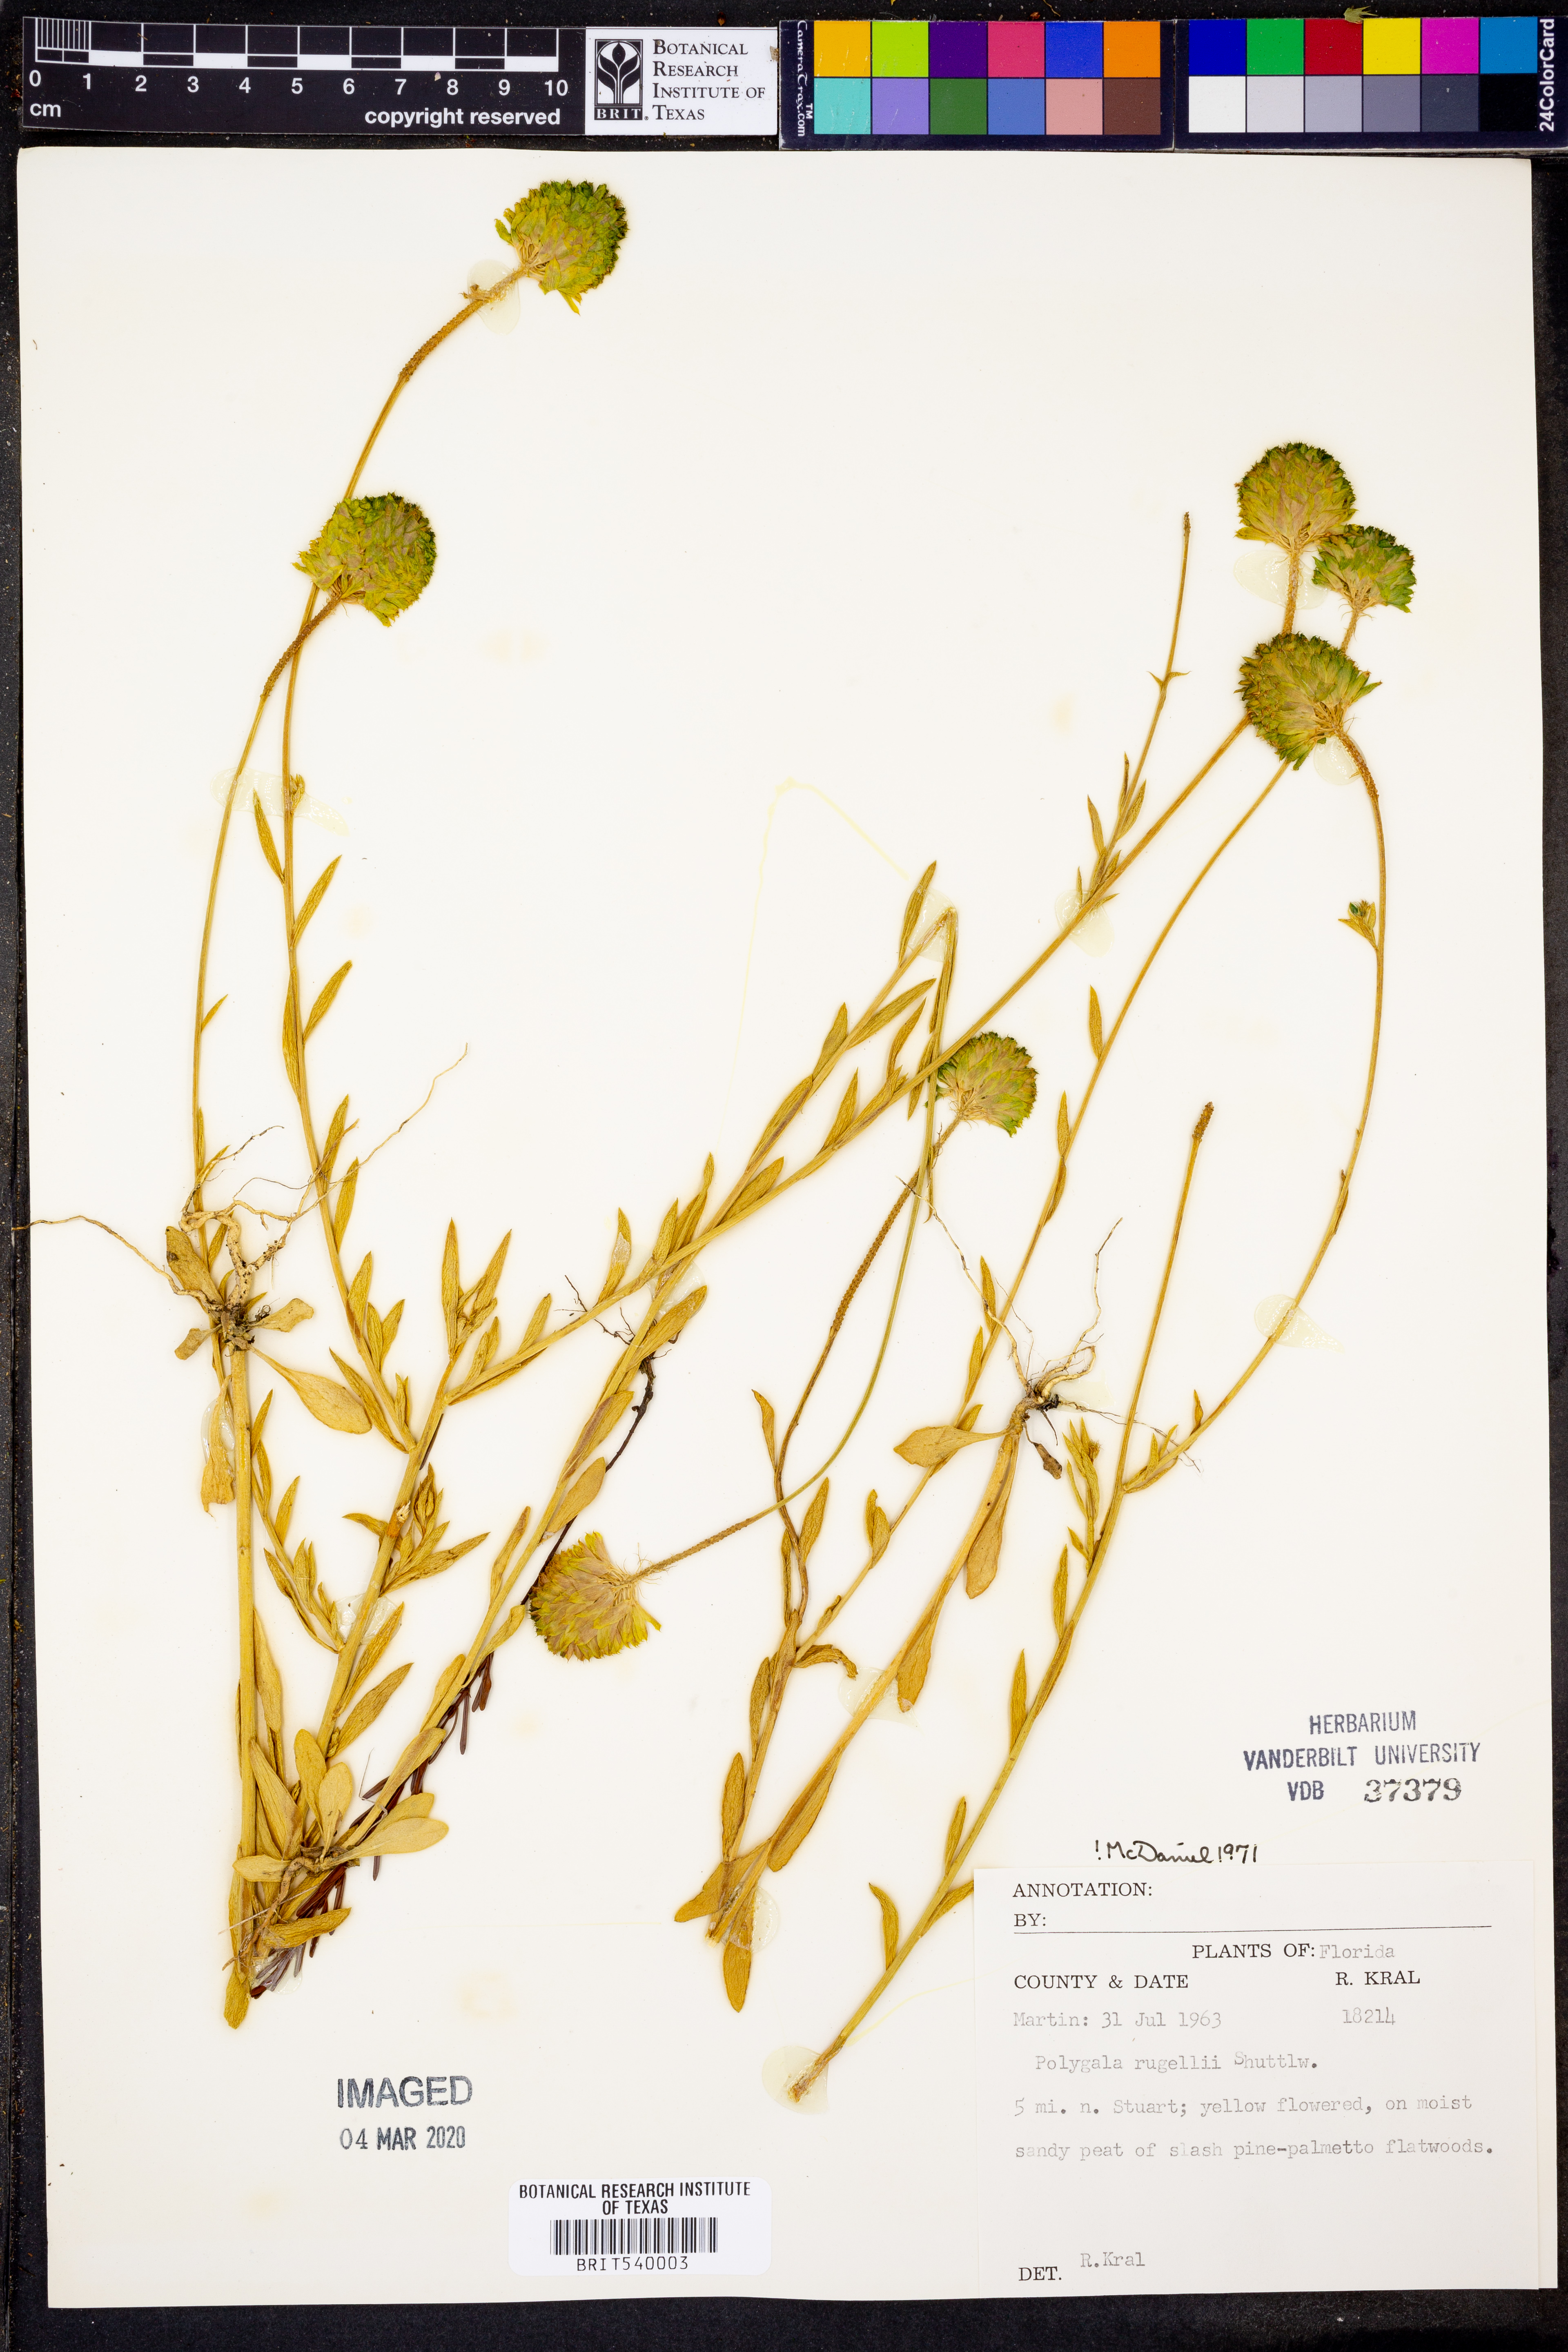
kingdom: Plantae
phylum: Tracheophyta
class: Magnoliopsida
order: Fabales
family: Polygalaceae
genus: Polygala
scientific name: Polygala rugelii
